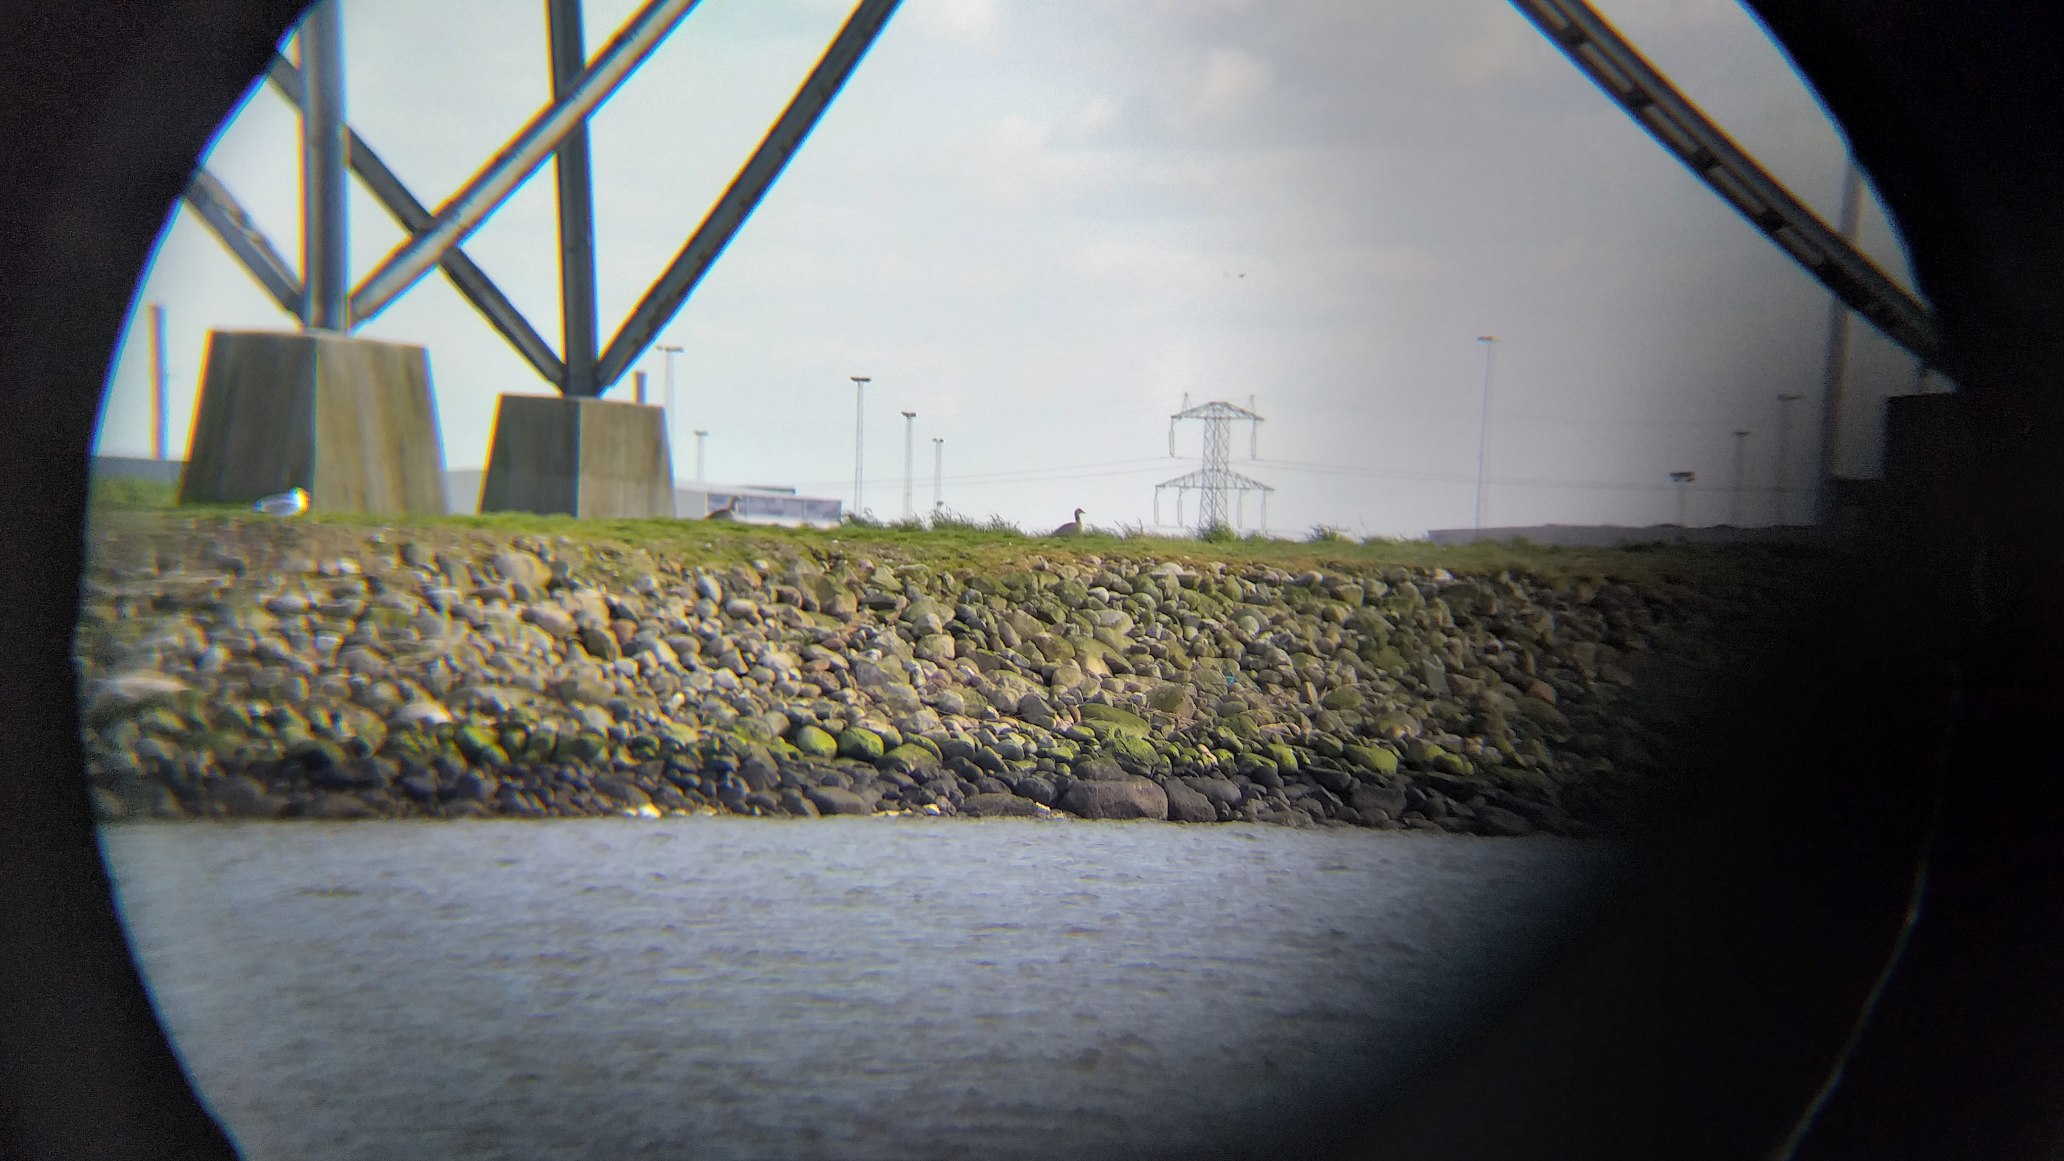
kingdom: Animalia
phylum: Chordata
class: Aves
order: Anseriformes
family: Anatidae
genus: Alopochen
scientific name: Alopochen aegyptiaca
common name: Nilgås
